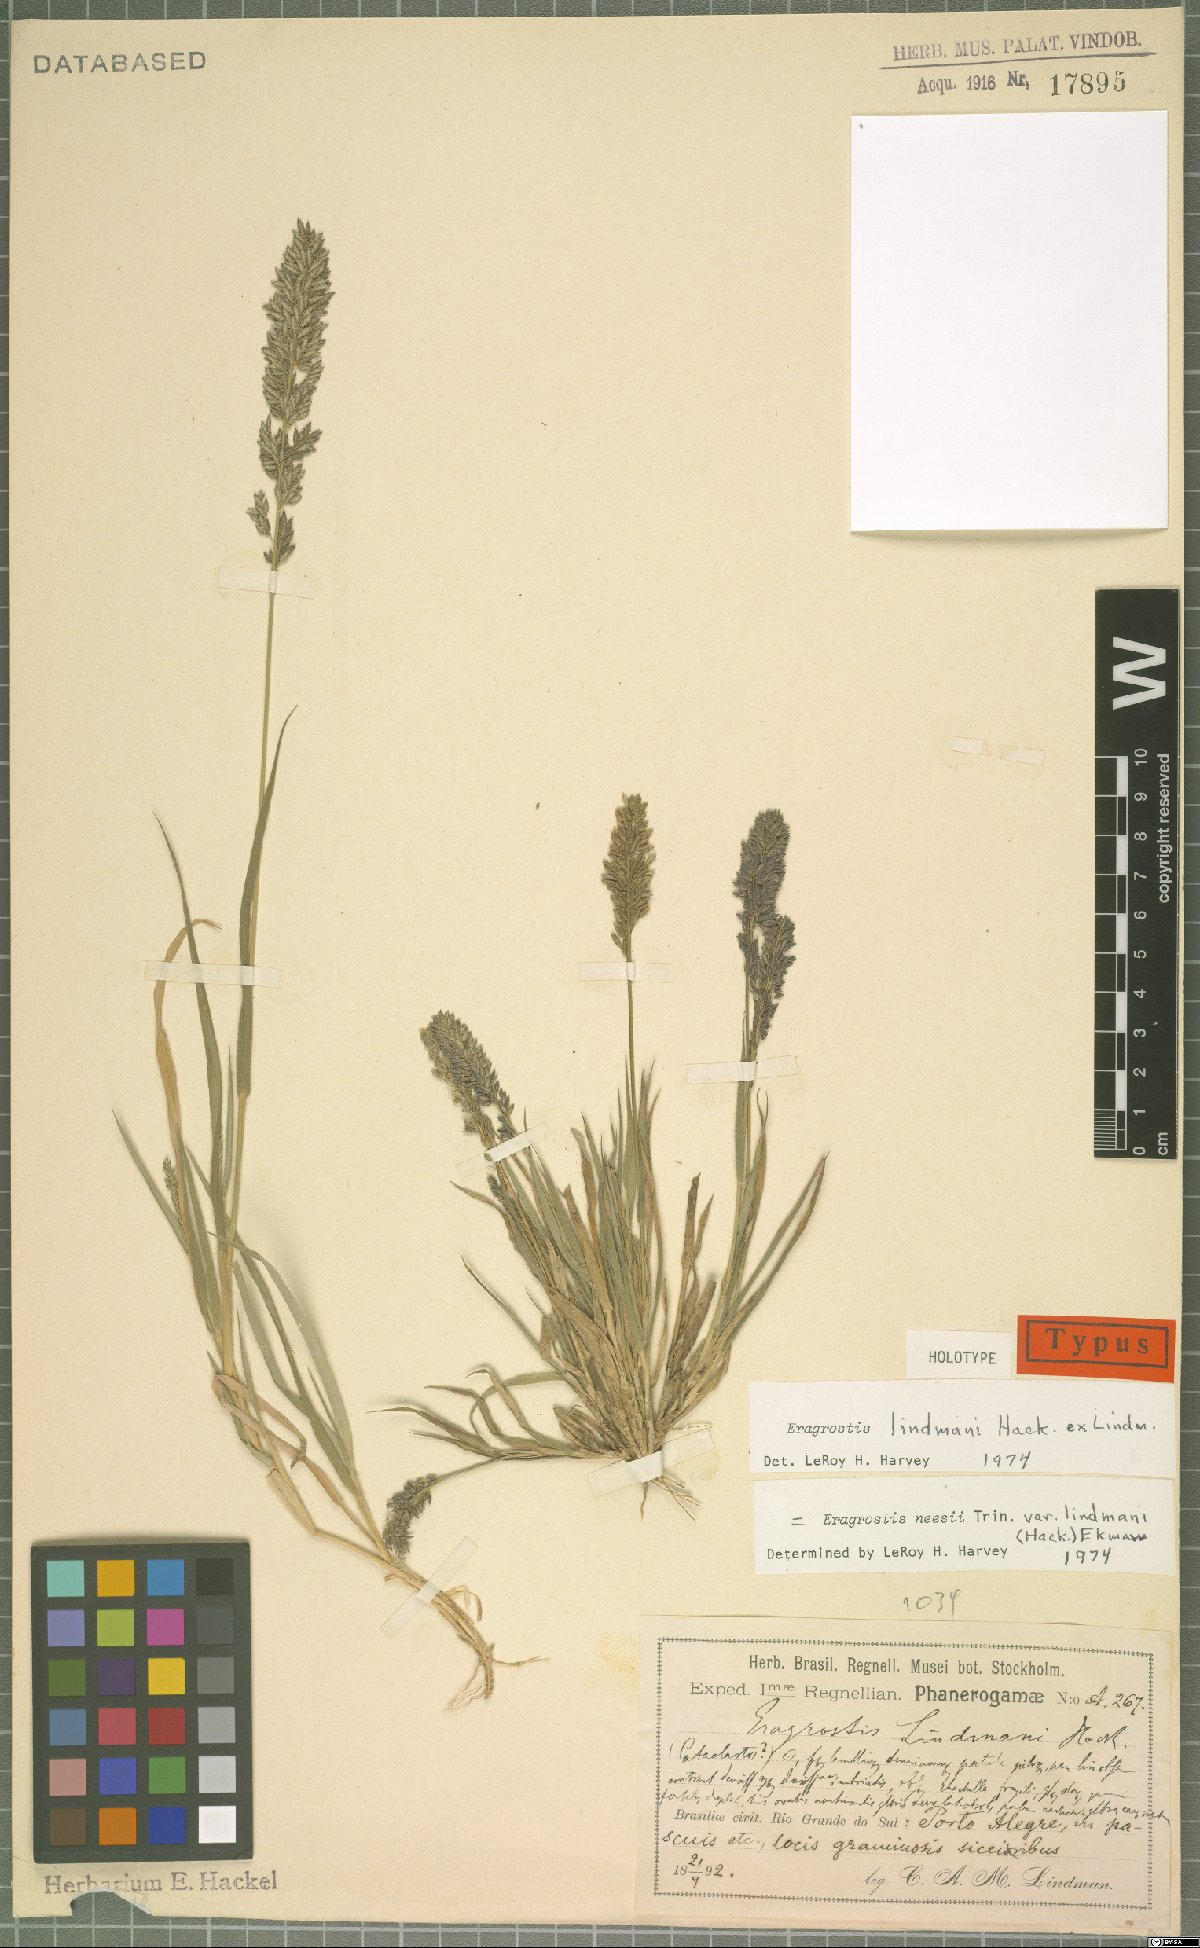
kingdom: Plantae
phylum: Tracheophyta
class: Liliopsida
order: Poales
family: Poaceae
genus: Eragrostis
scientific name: Eragrostis neesii
